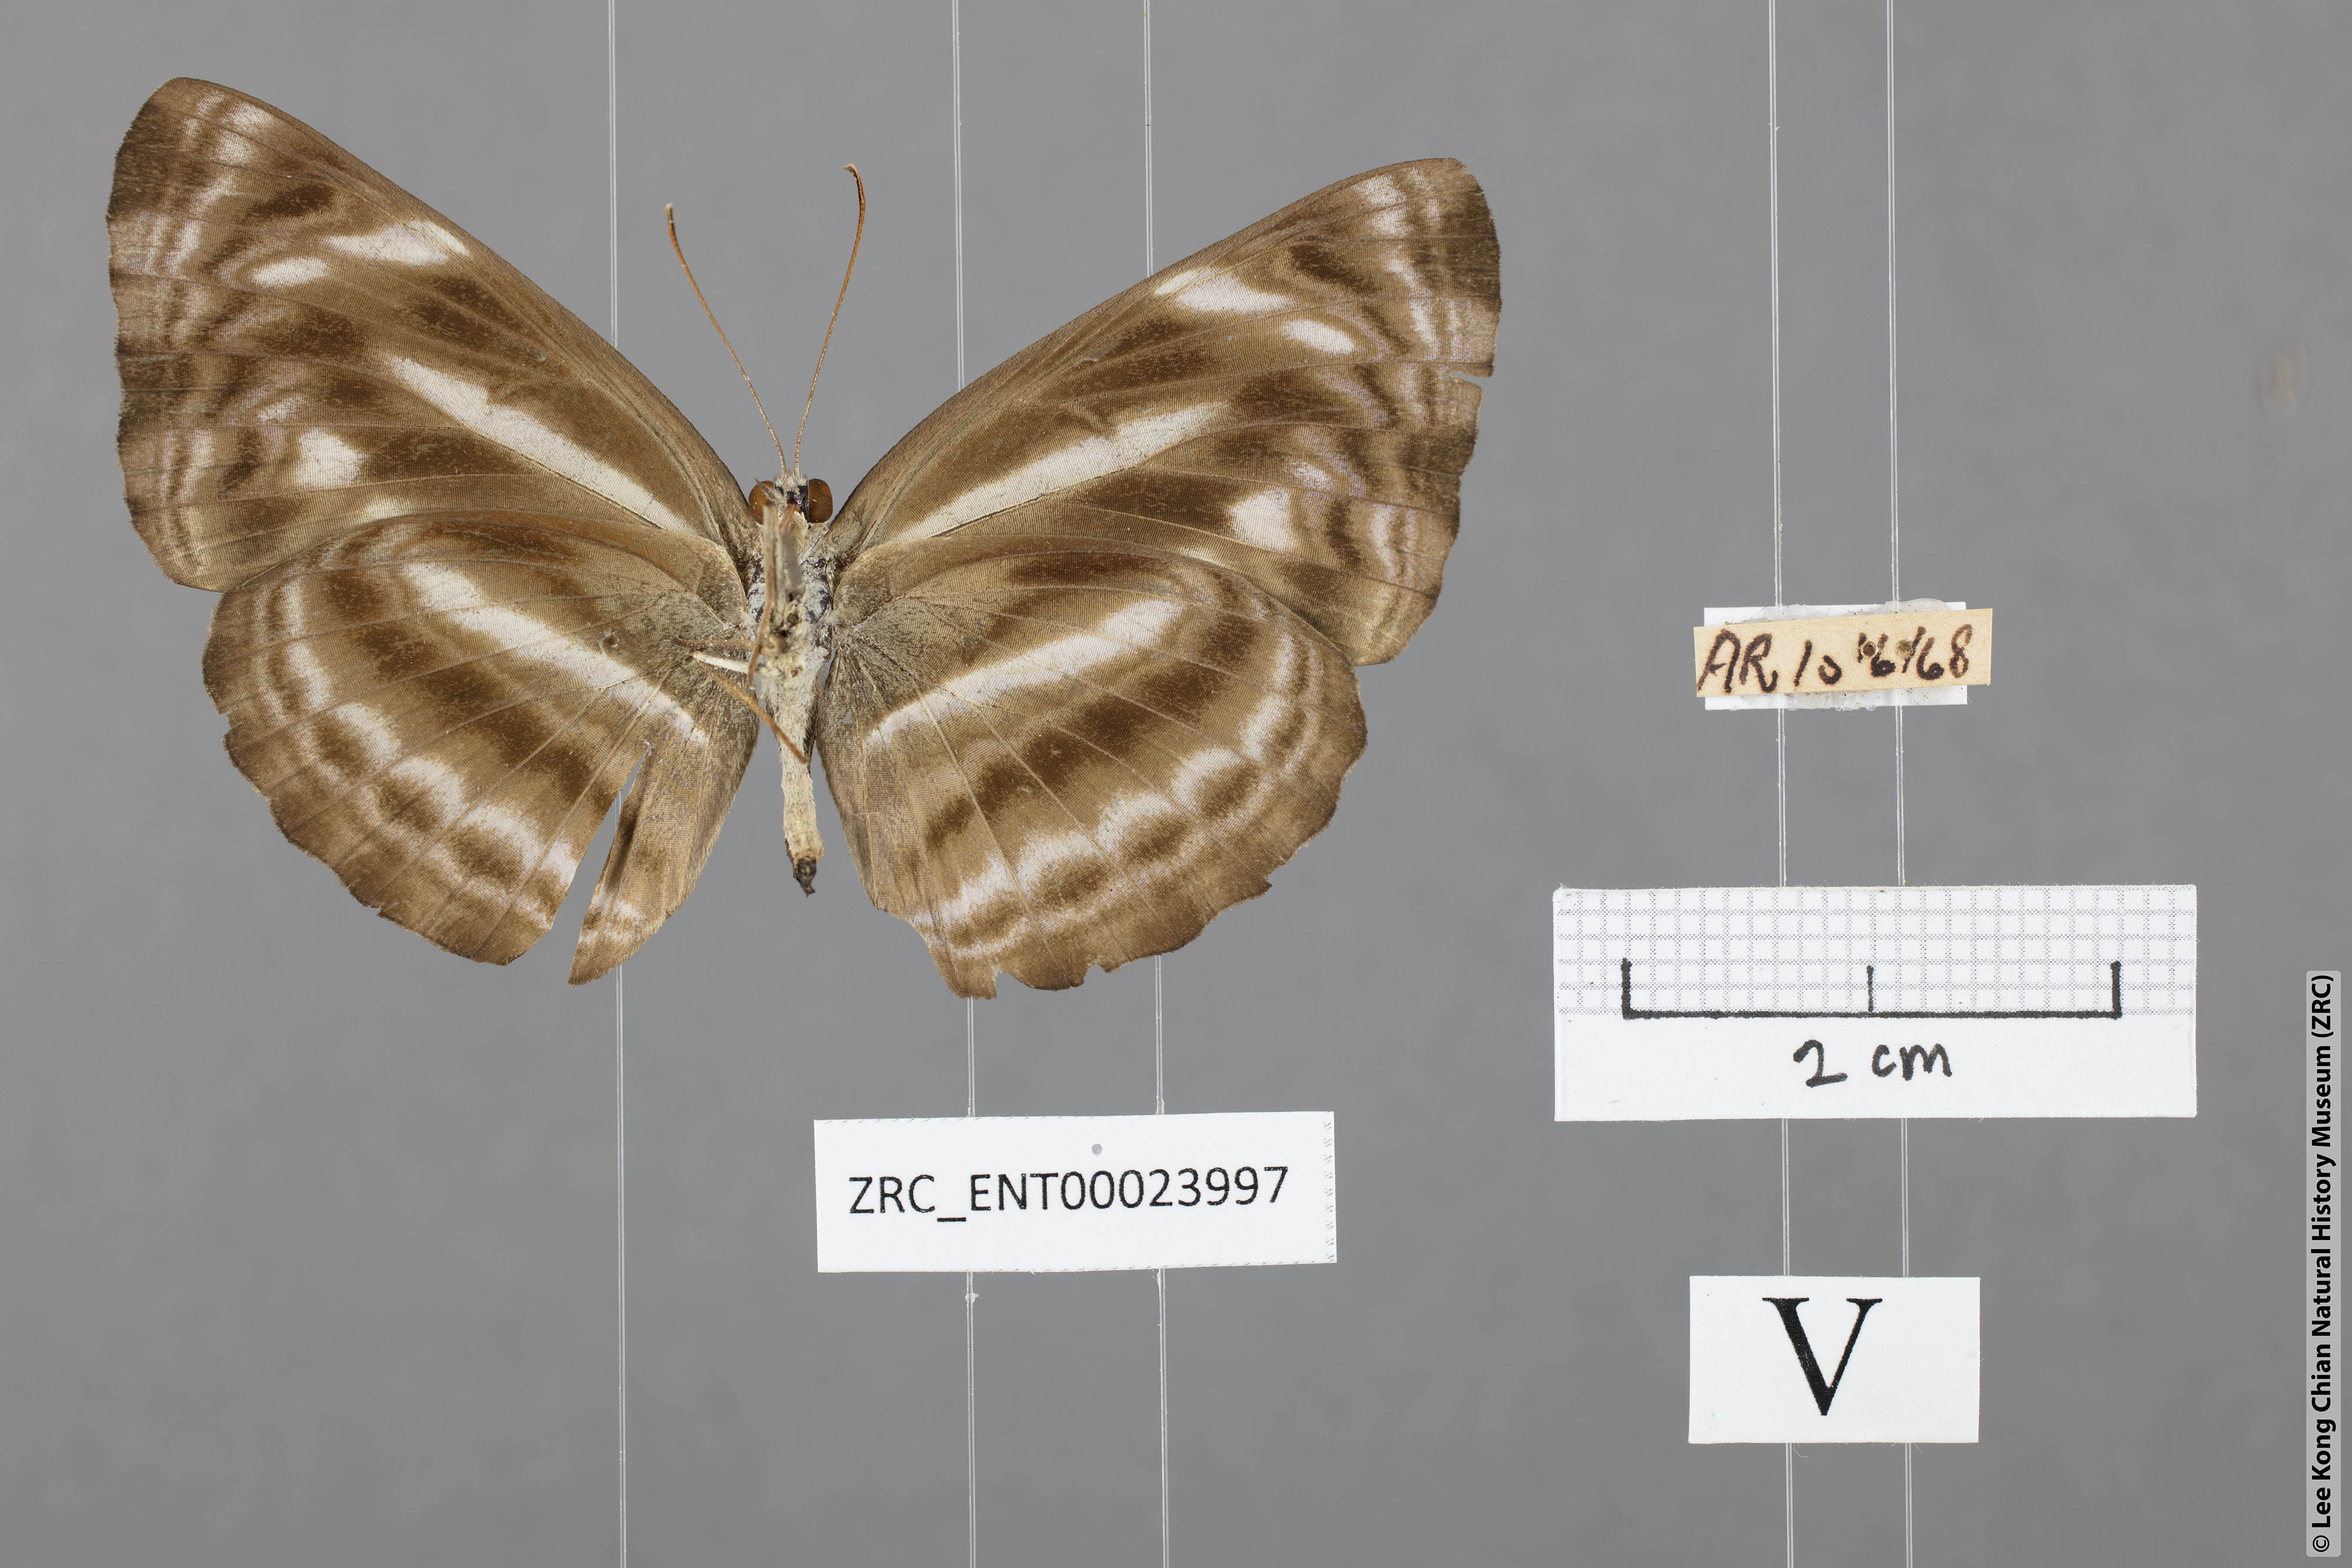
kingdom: Animalia
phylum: Arthropoda
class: Insecta
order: Lepidoptera
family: Nymphalidae
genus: Neptis
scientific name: Neptis harita
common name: Chocolate sailer
